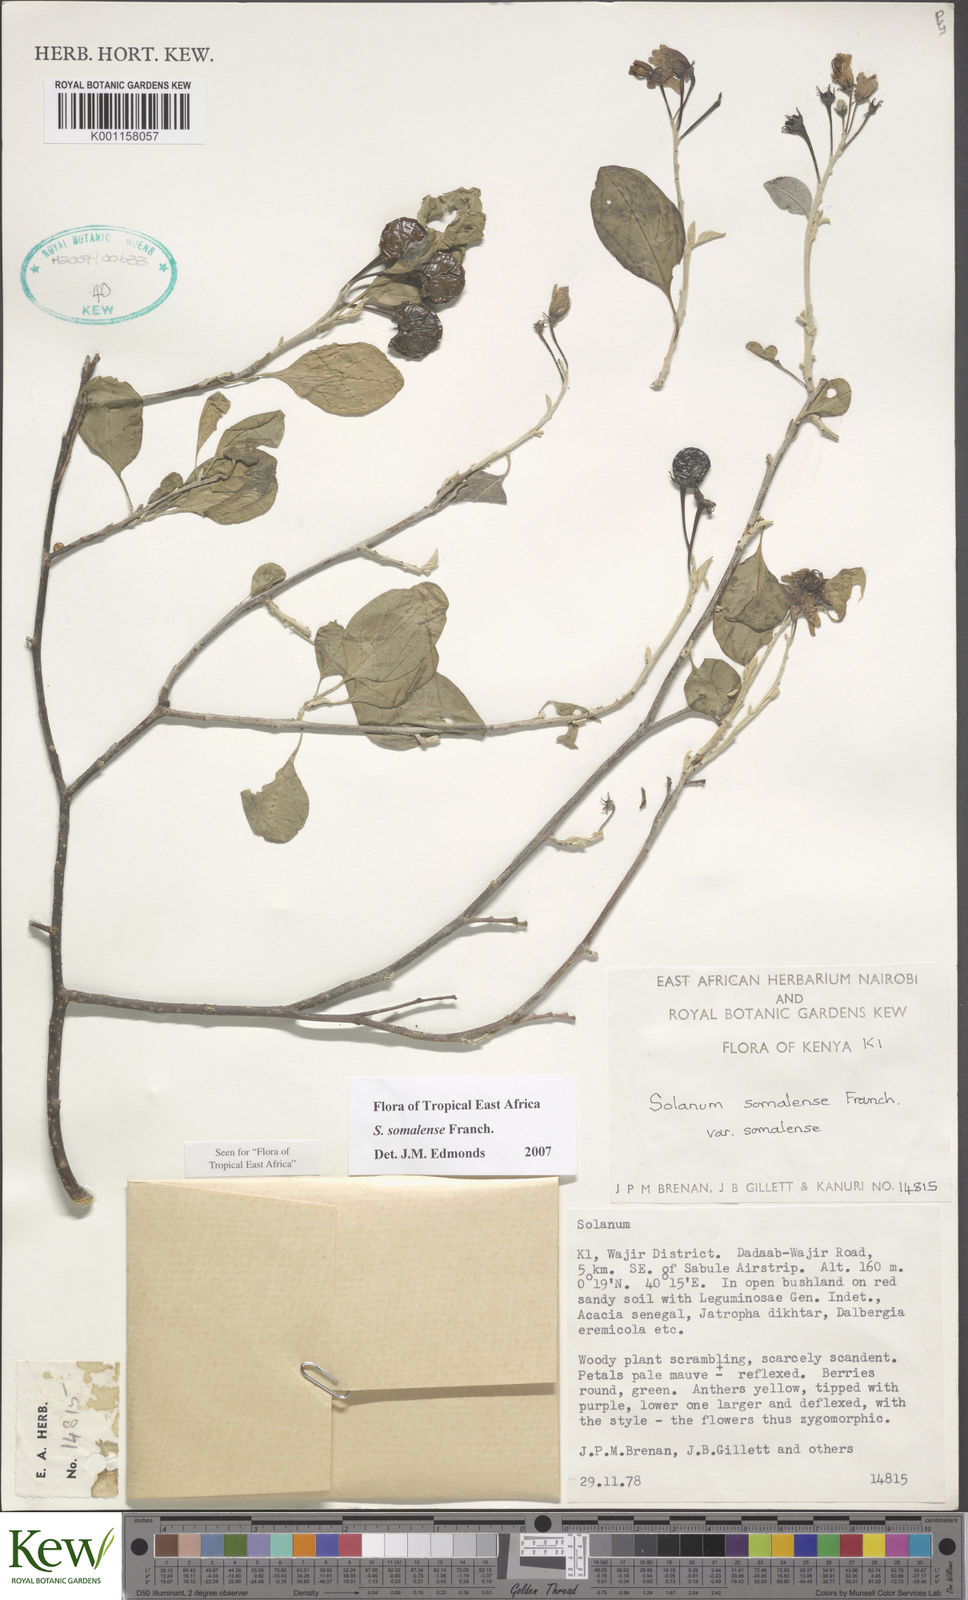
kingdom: Plantae
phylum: Tracheophyta
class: Magnoliopsida
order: Solanales
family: Solanaceae
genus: Solanum
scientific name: Solanum somalense
